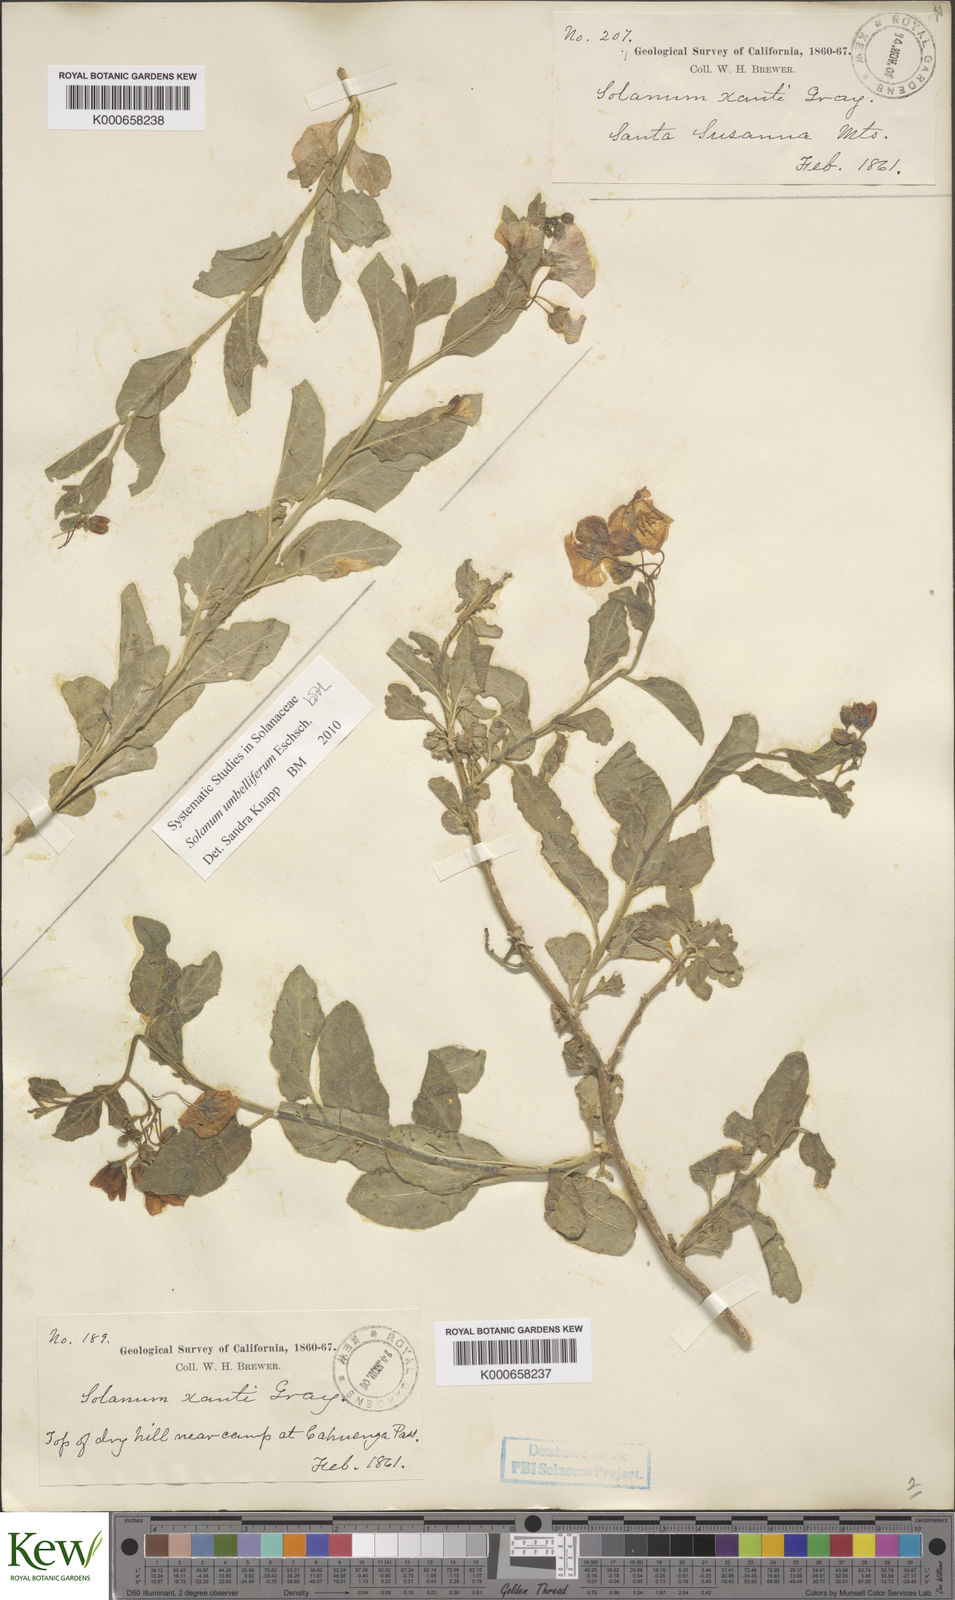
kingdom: Plantae
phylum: Tracheophyta
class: Magnoliopsida
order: Solanales
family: Solanaceae
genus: Solanum
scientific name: Solanum umbelliferum
